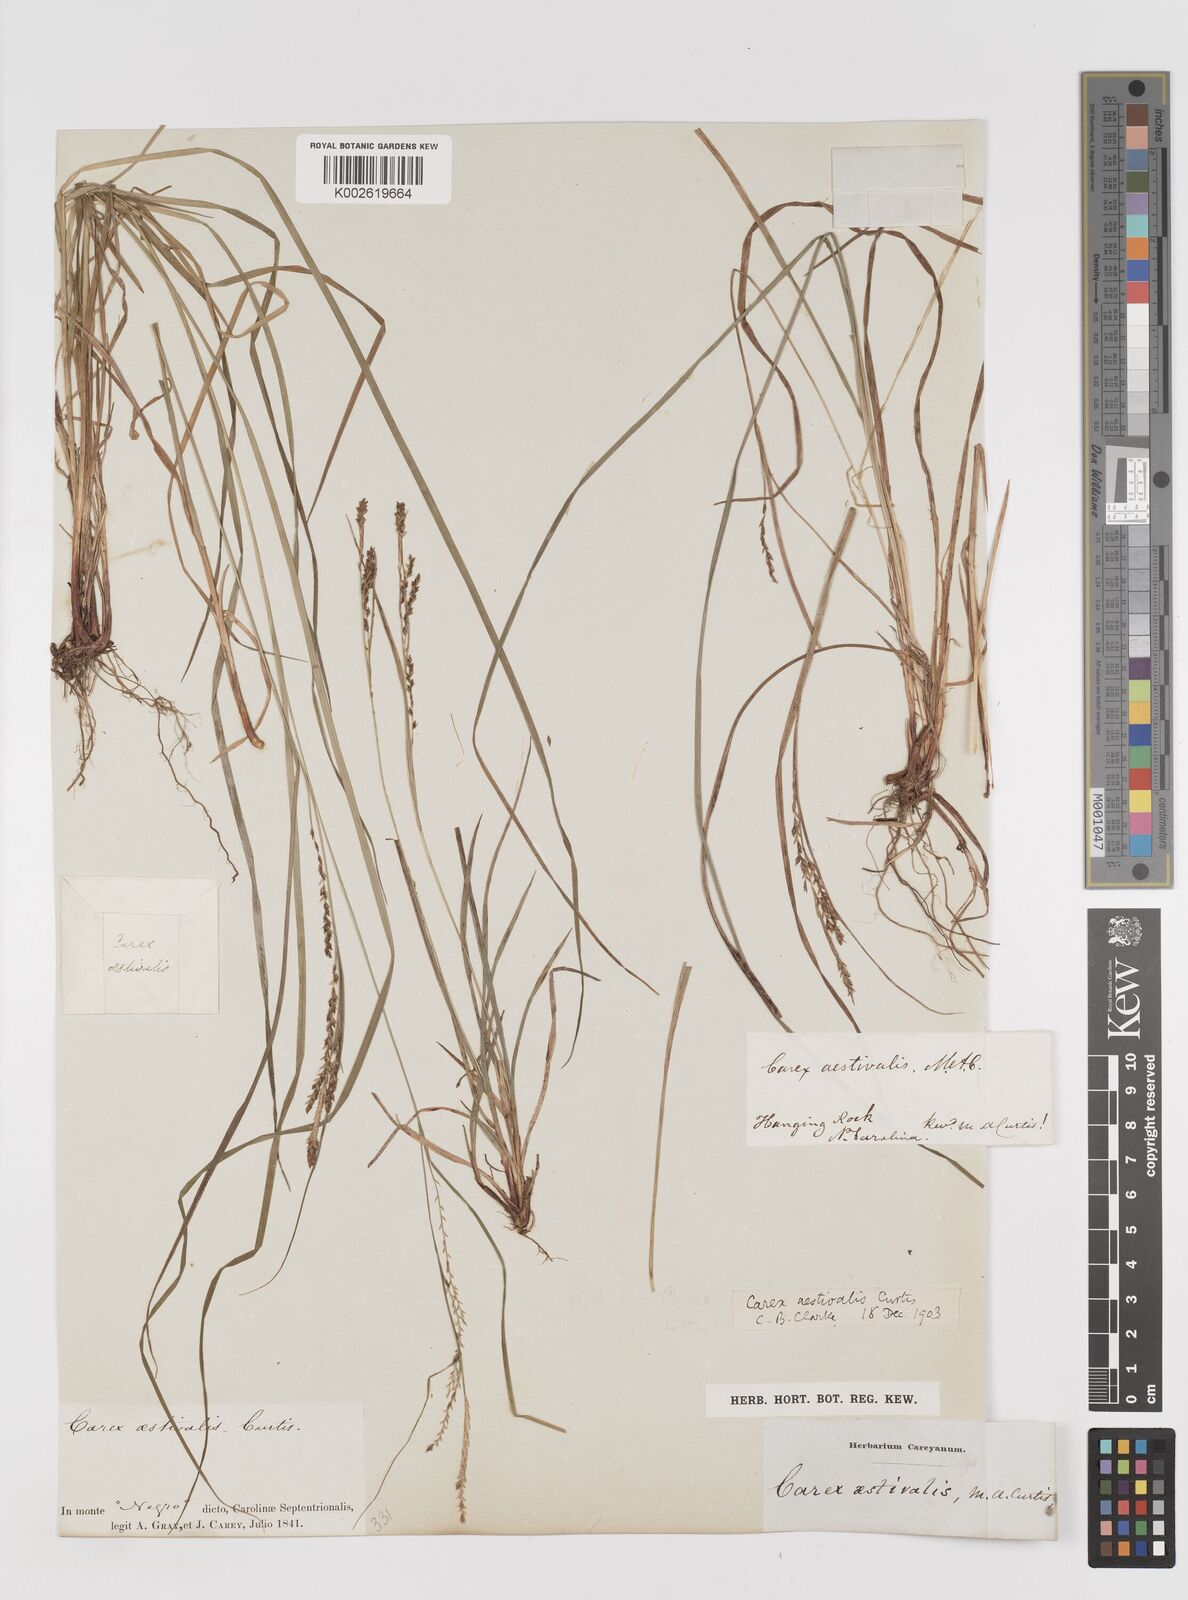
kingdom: Plantae
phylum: Tracheophyta
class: Liliopsida
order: Poales
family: Cyperaceae
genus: Carex
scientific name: Carex aestivalis
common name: Summer sedge
